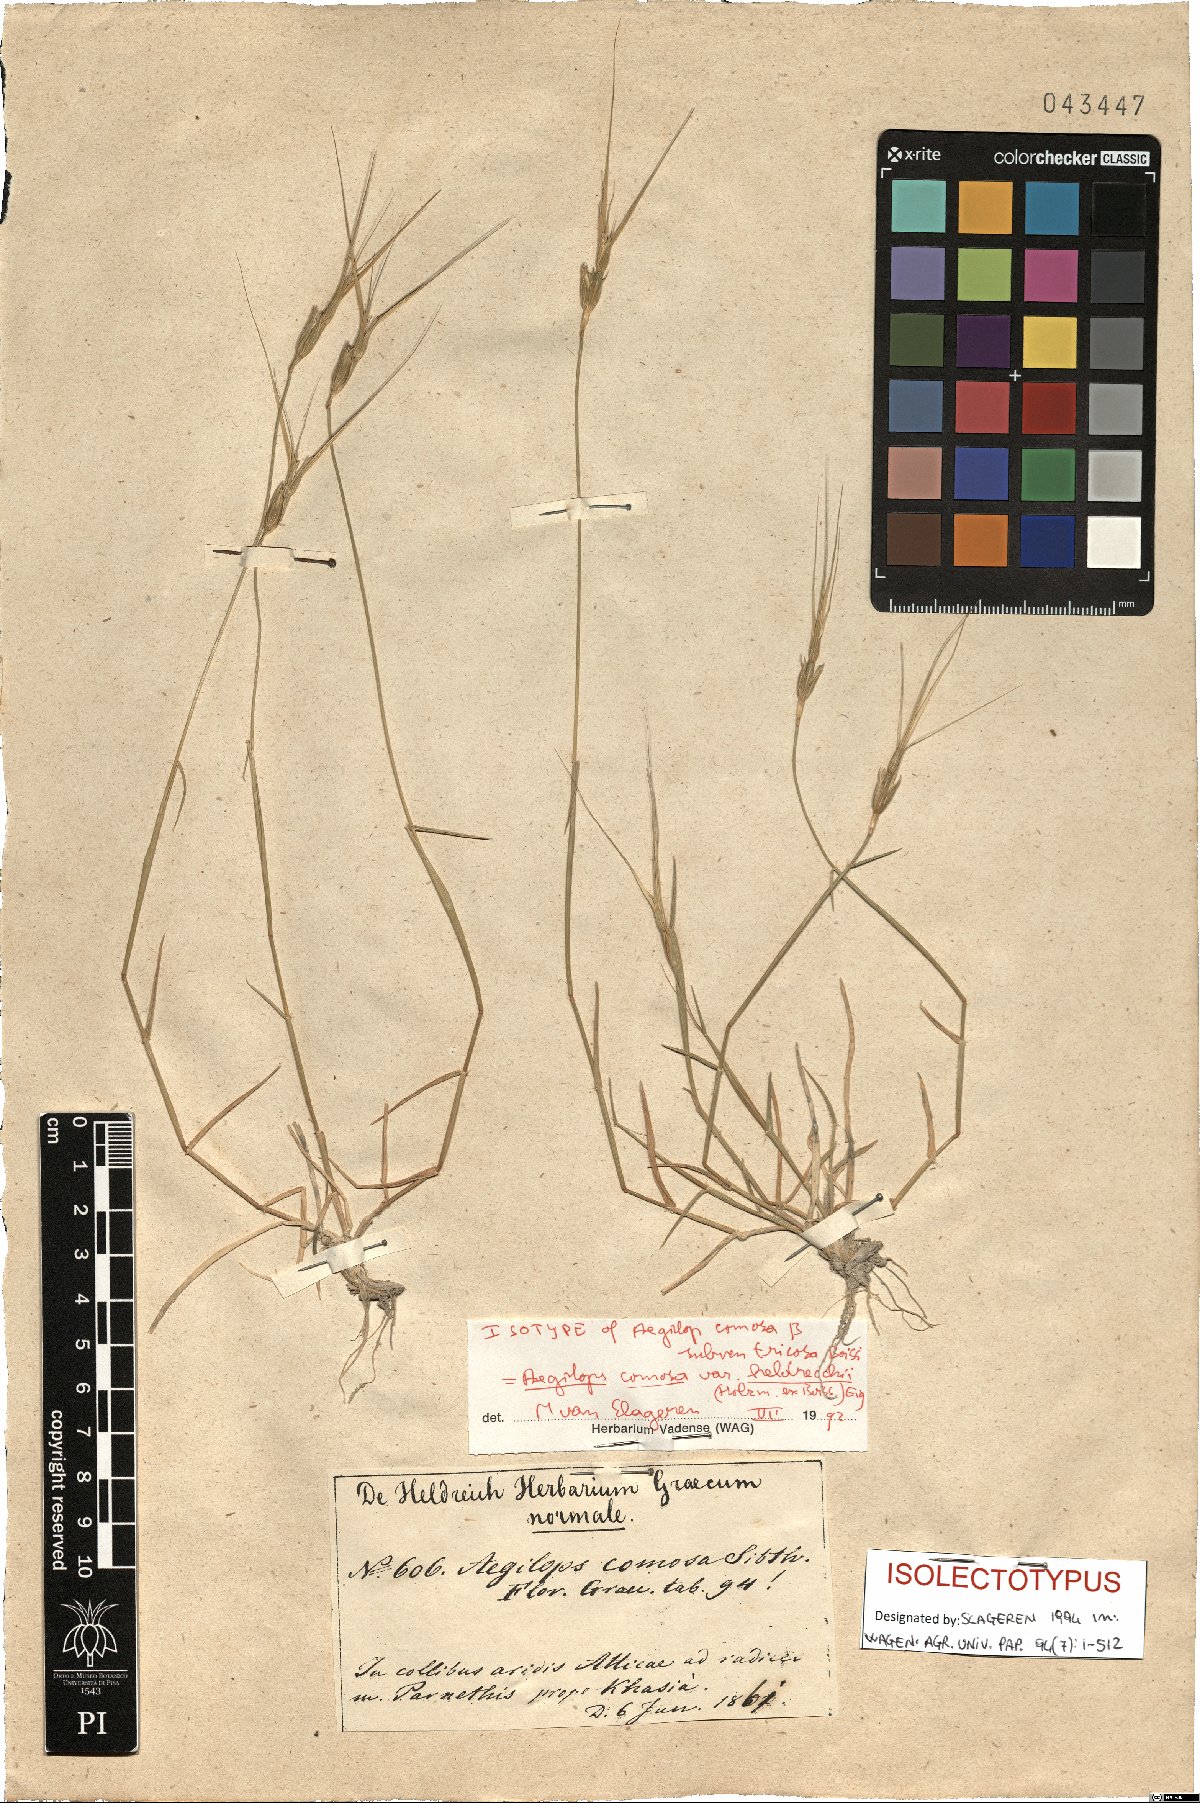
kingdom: Plantae
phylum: Tracheophyta
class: Liliopsida
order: Poales
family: Poaceae
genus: Aegilops
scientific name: Aegilops comosa
